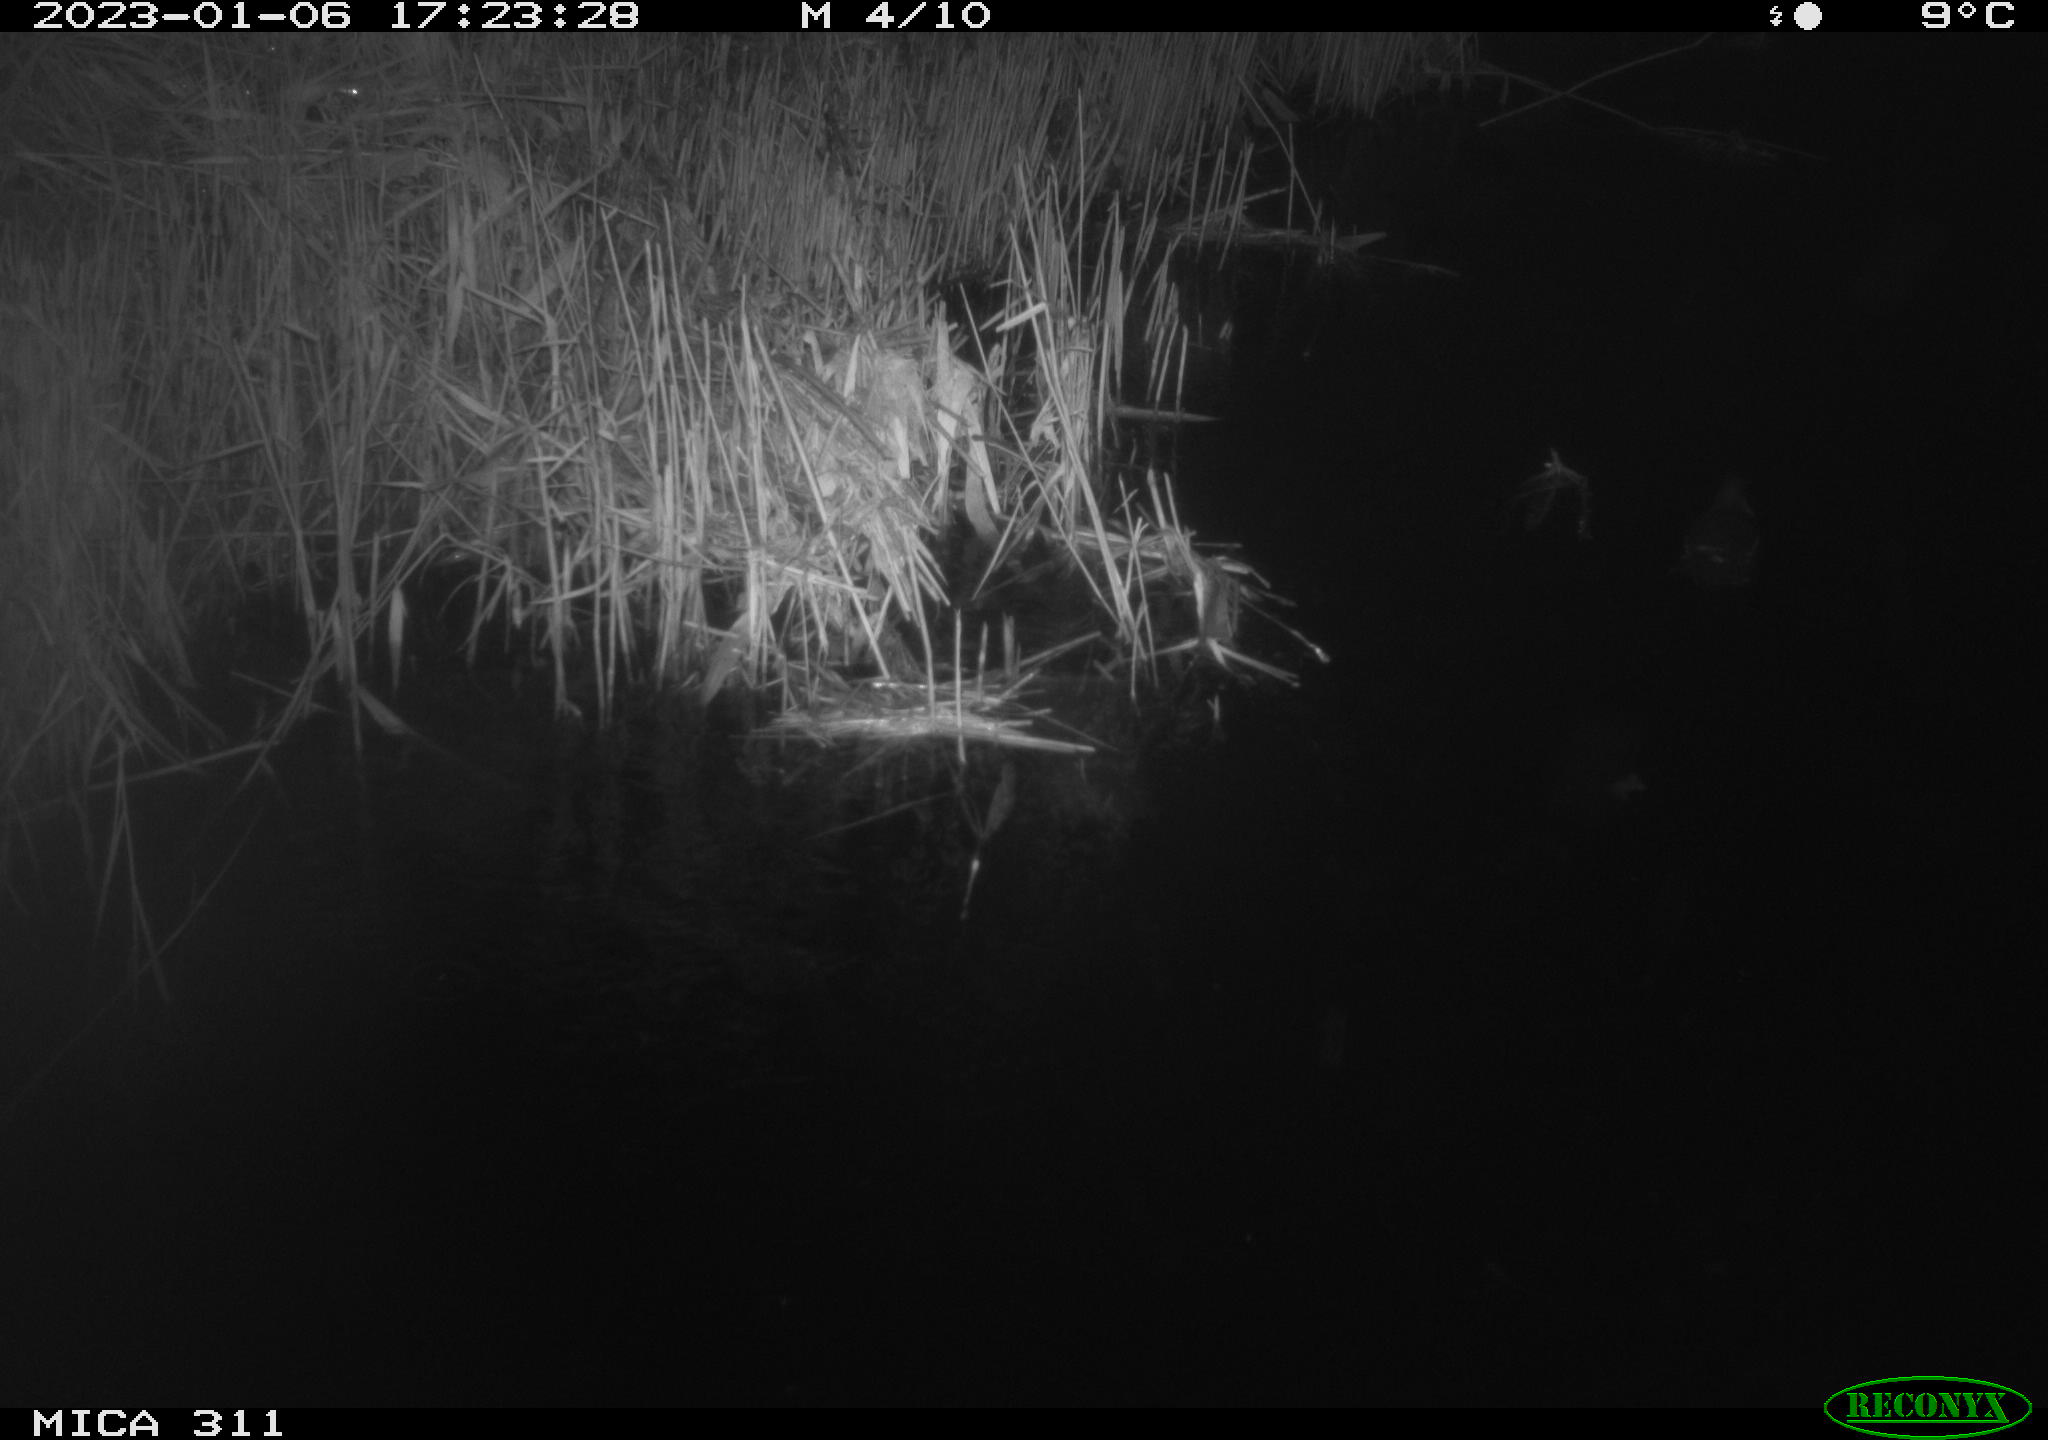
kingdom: Animalia
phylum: Chordata
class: Aves
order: Gruiformes
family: Rallidae
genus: Gallinula
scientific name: Gallinula chloropus
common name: Common moorhen
